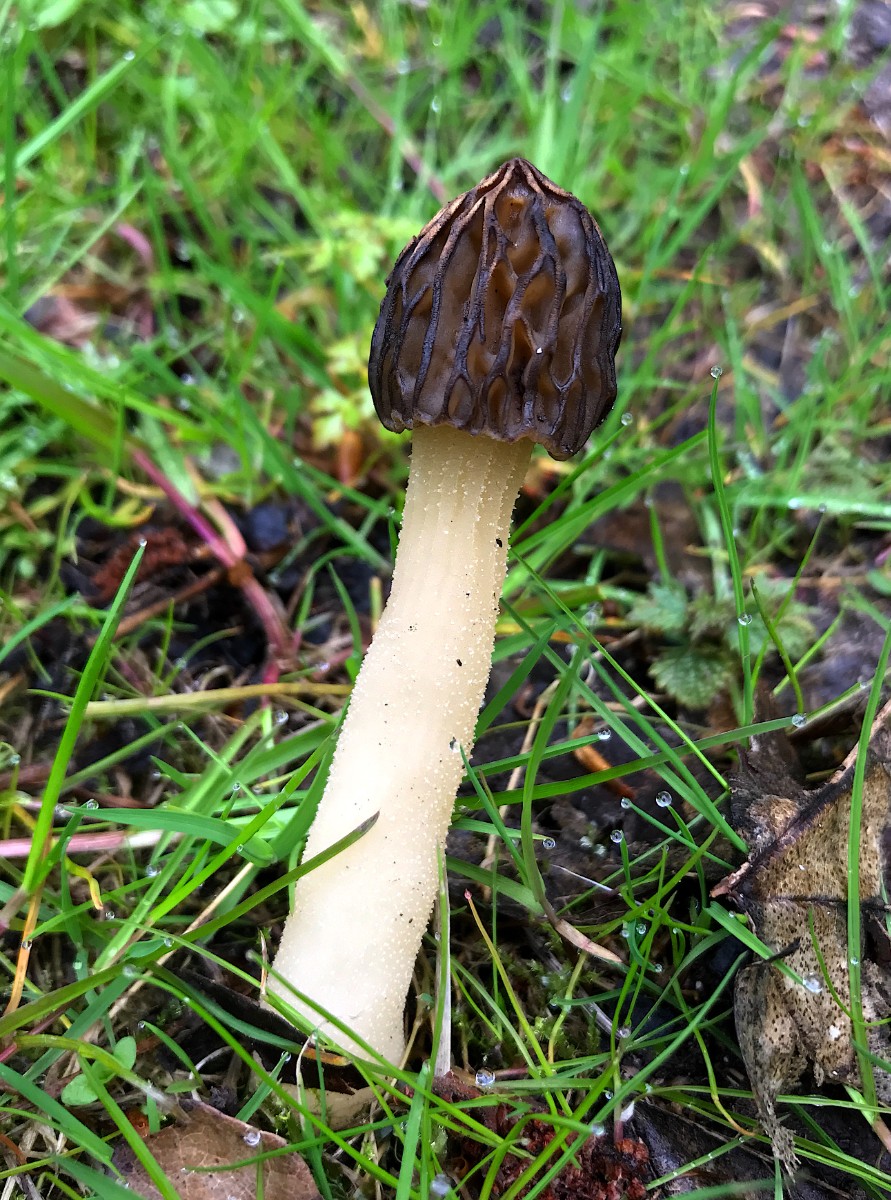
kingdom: Fungi
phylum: Ascomycota
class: Pezizomycetes
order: Pezizales
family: Morchellaceae
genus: Morchella
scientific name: Morchella semilibera
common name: hætte-morkel
